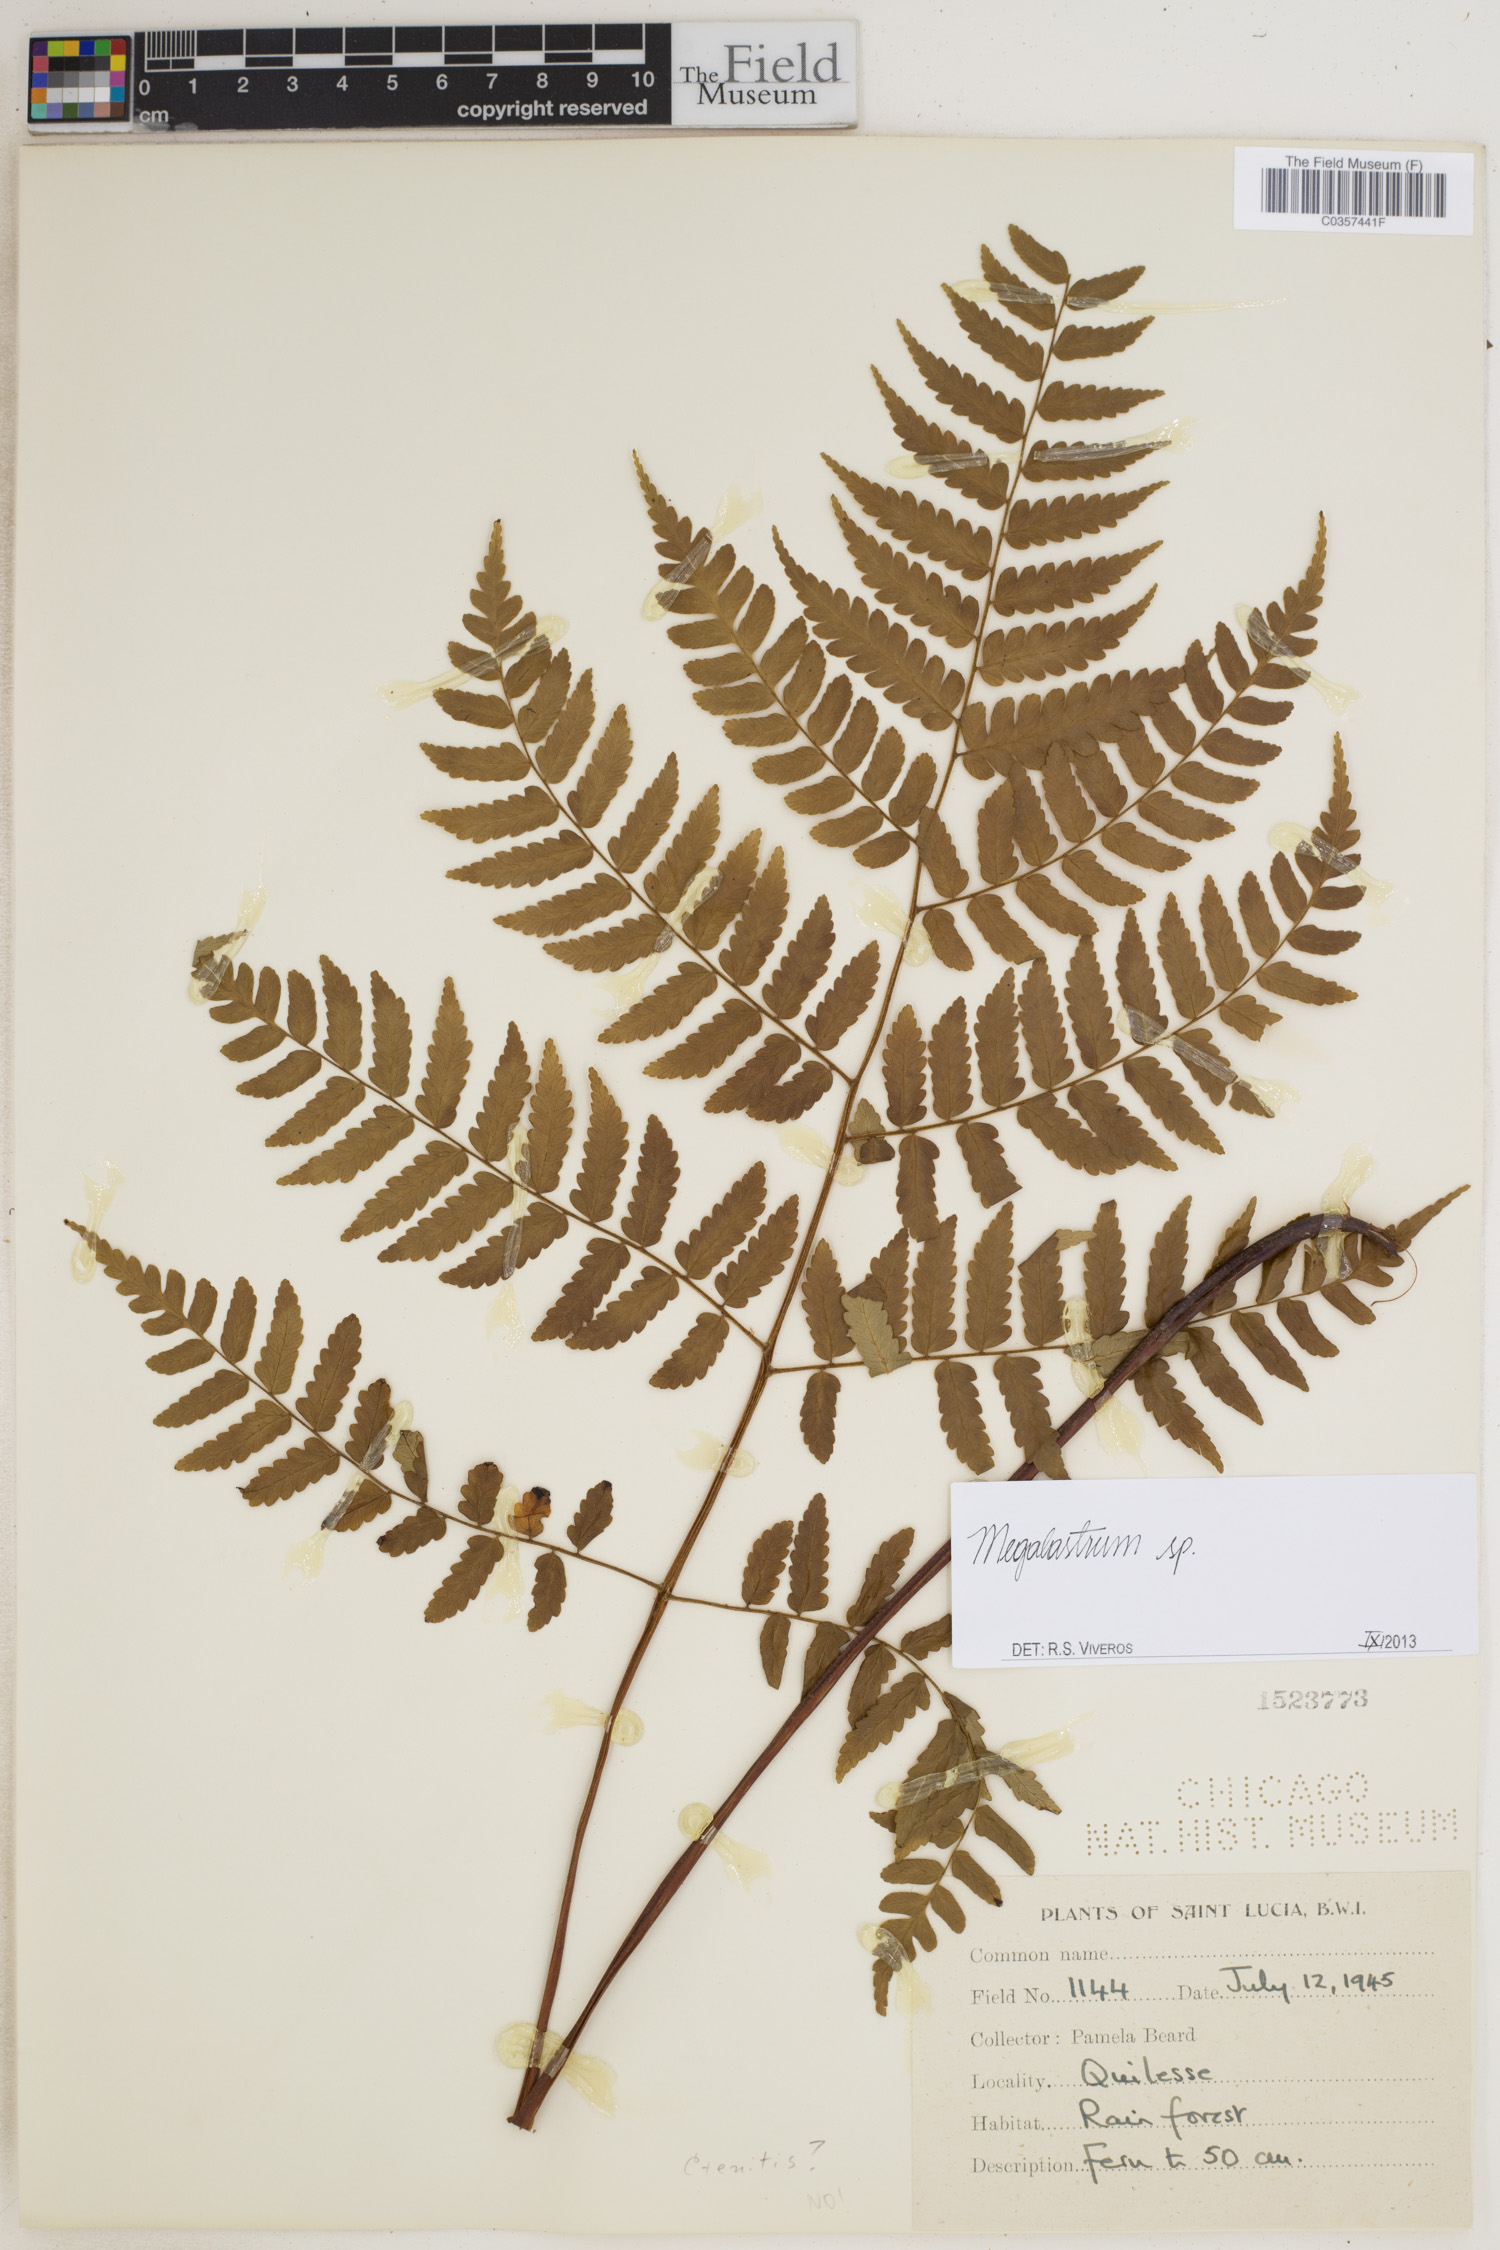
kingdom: Plantae
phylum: Tracheophyta
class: Polypodiopsida
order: Polypodiales
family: Dryopteridaceae
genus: Megalastrum
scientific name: Megalastrum
